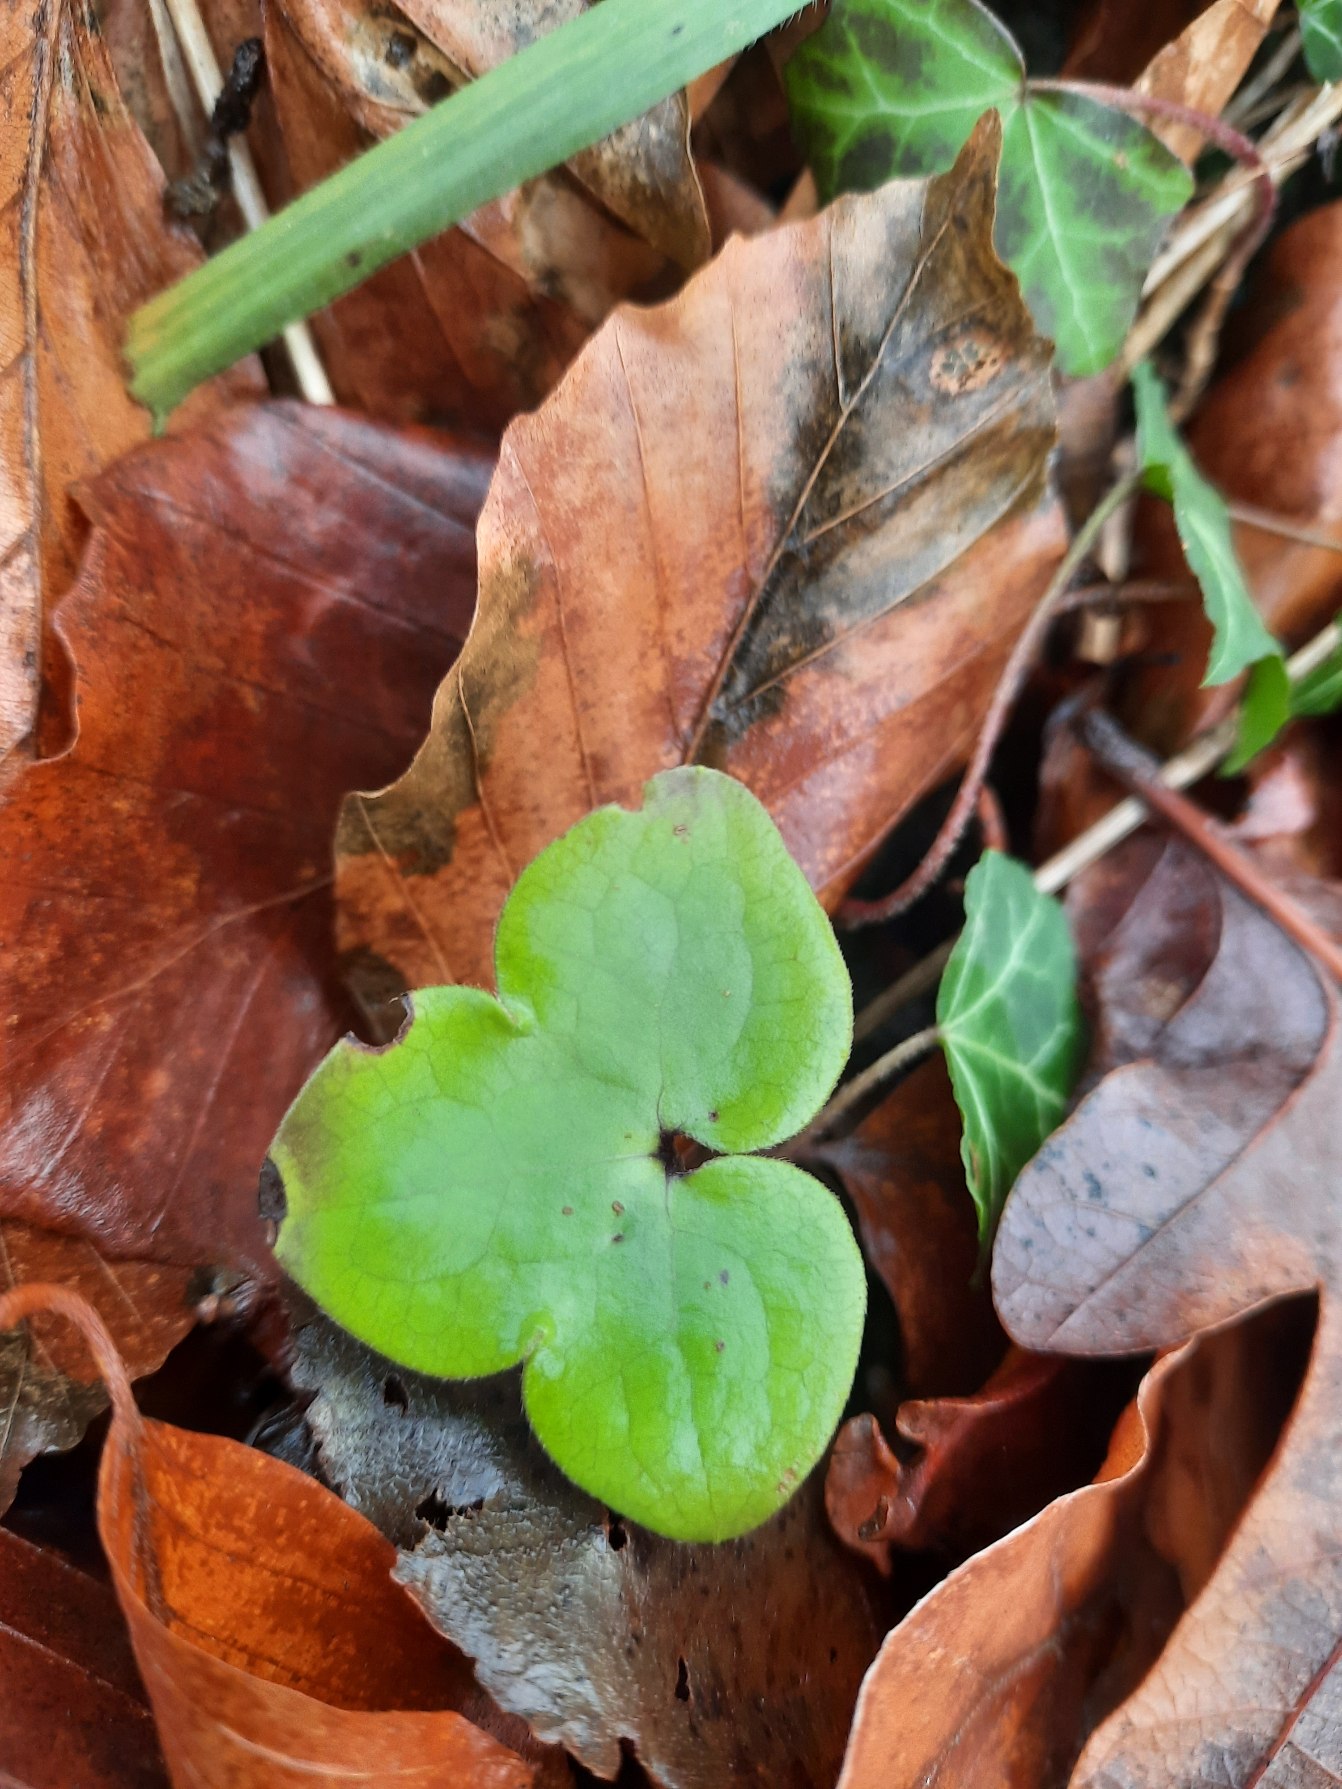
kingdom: Plantae
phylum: Tracheophyta
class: Magnoliopsida
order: Ranunculales
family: Ranunculaceae
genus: Hepatica
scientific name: Hepatica nobilis
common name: Blå anemone
